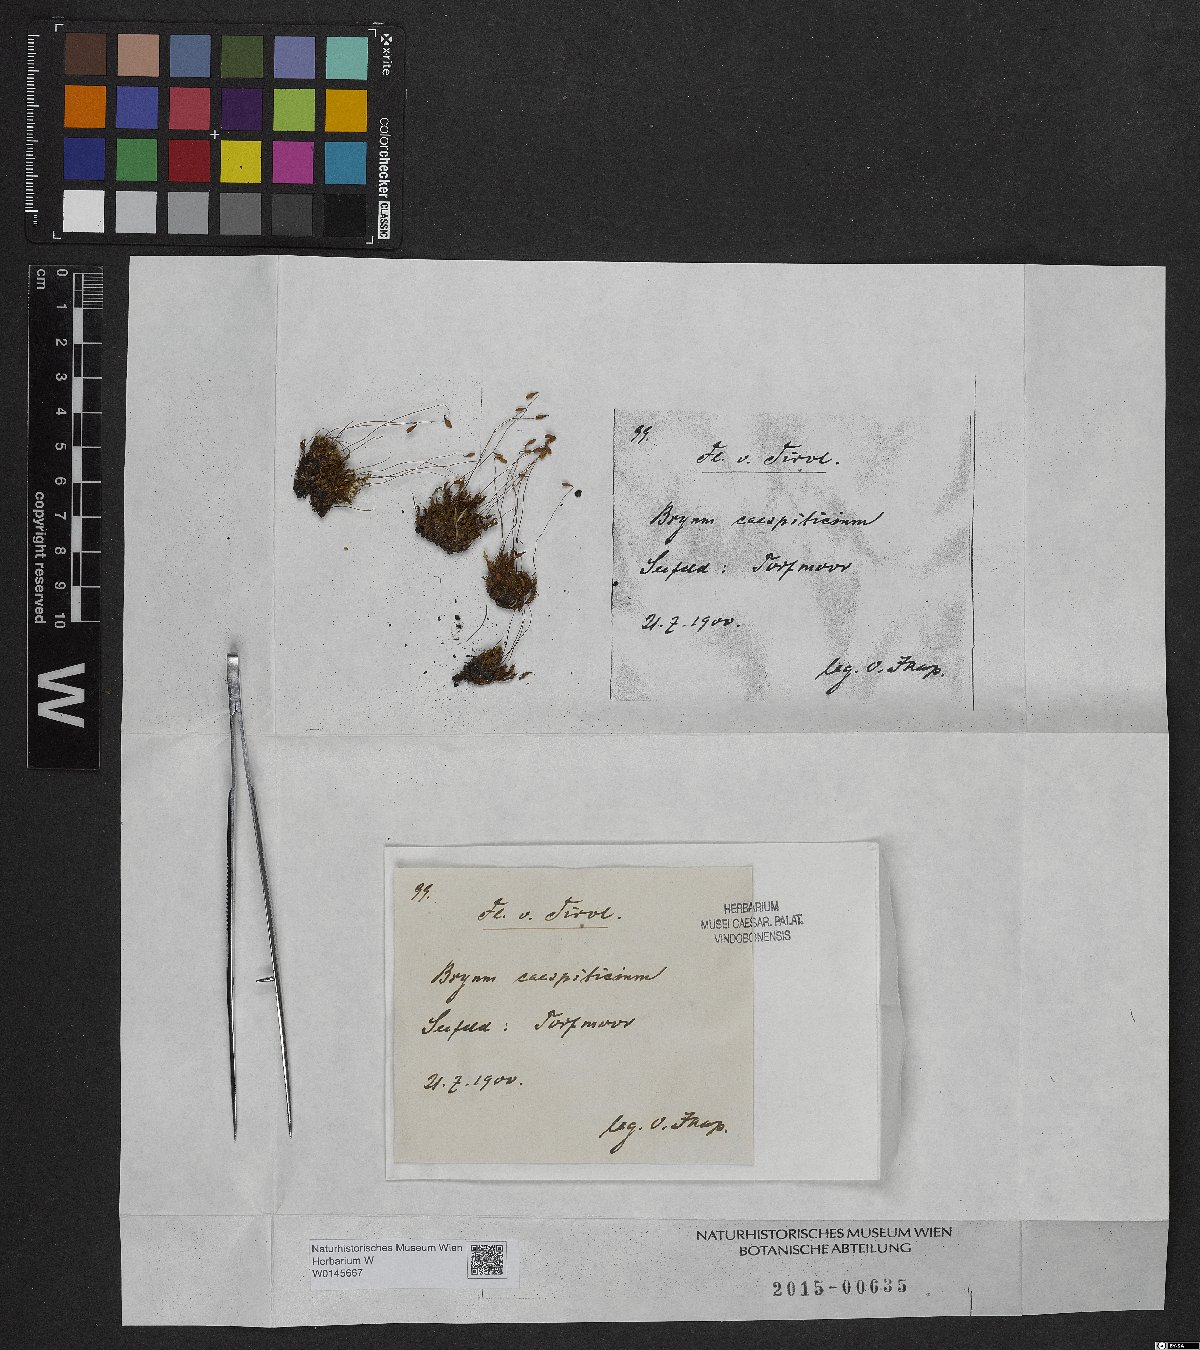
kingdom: Plantae
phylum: Bryophyta
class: Bryopsida
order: Bryales
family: Bryaceae
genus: Gemmabryum
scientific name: Gemmabryum caespiticium
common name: Handbell moss
